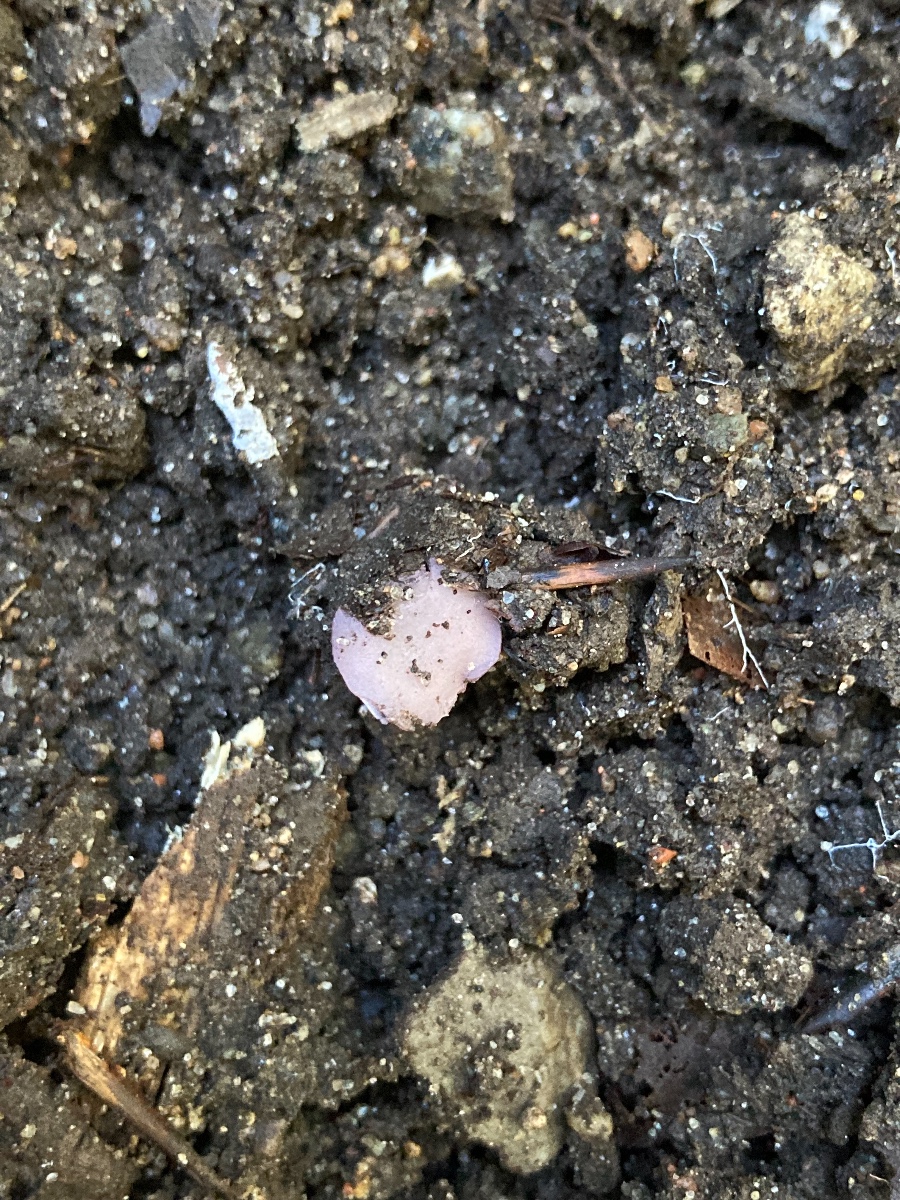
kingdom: Fungi
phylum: Ascomycota
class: Pezizomycetes
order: Pezizales
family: Pezizaceae
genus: Ionopezia
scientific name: Ionopezia gerardii
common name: tensporet bægersvamp
